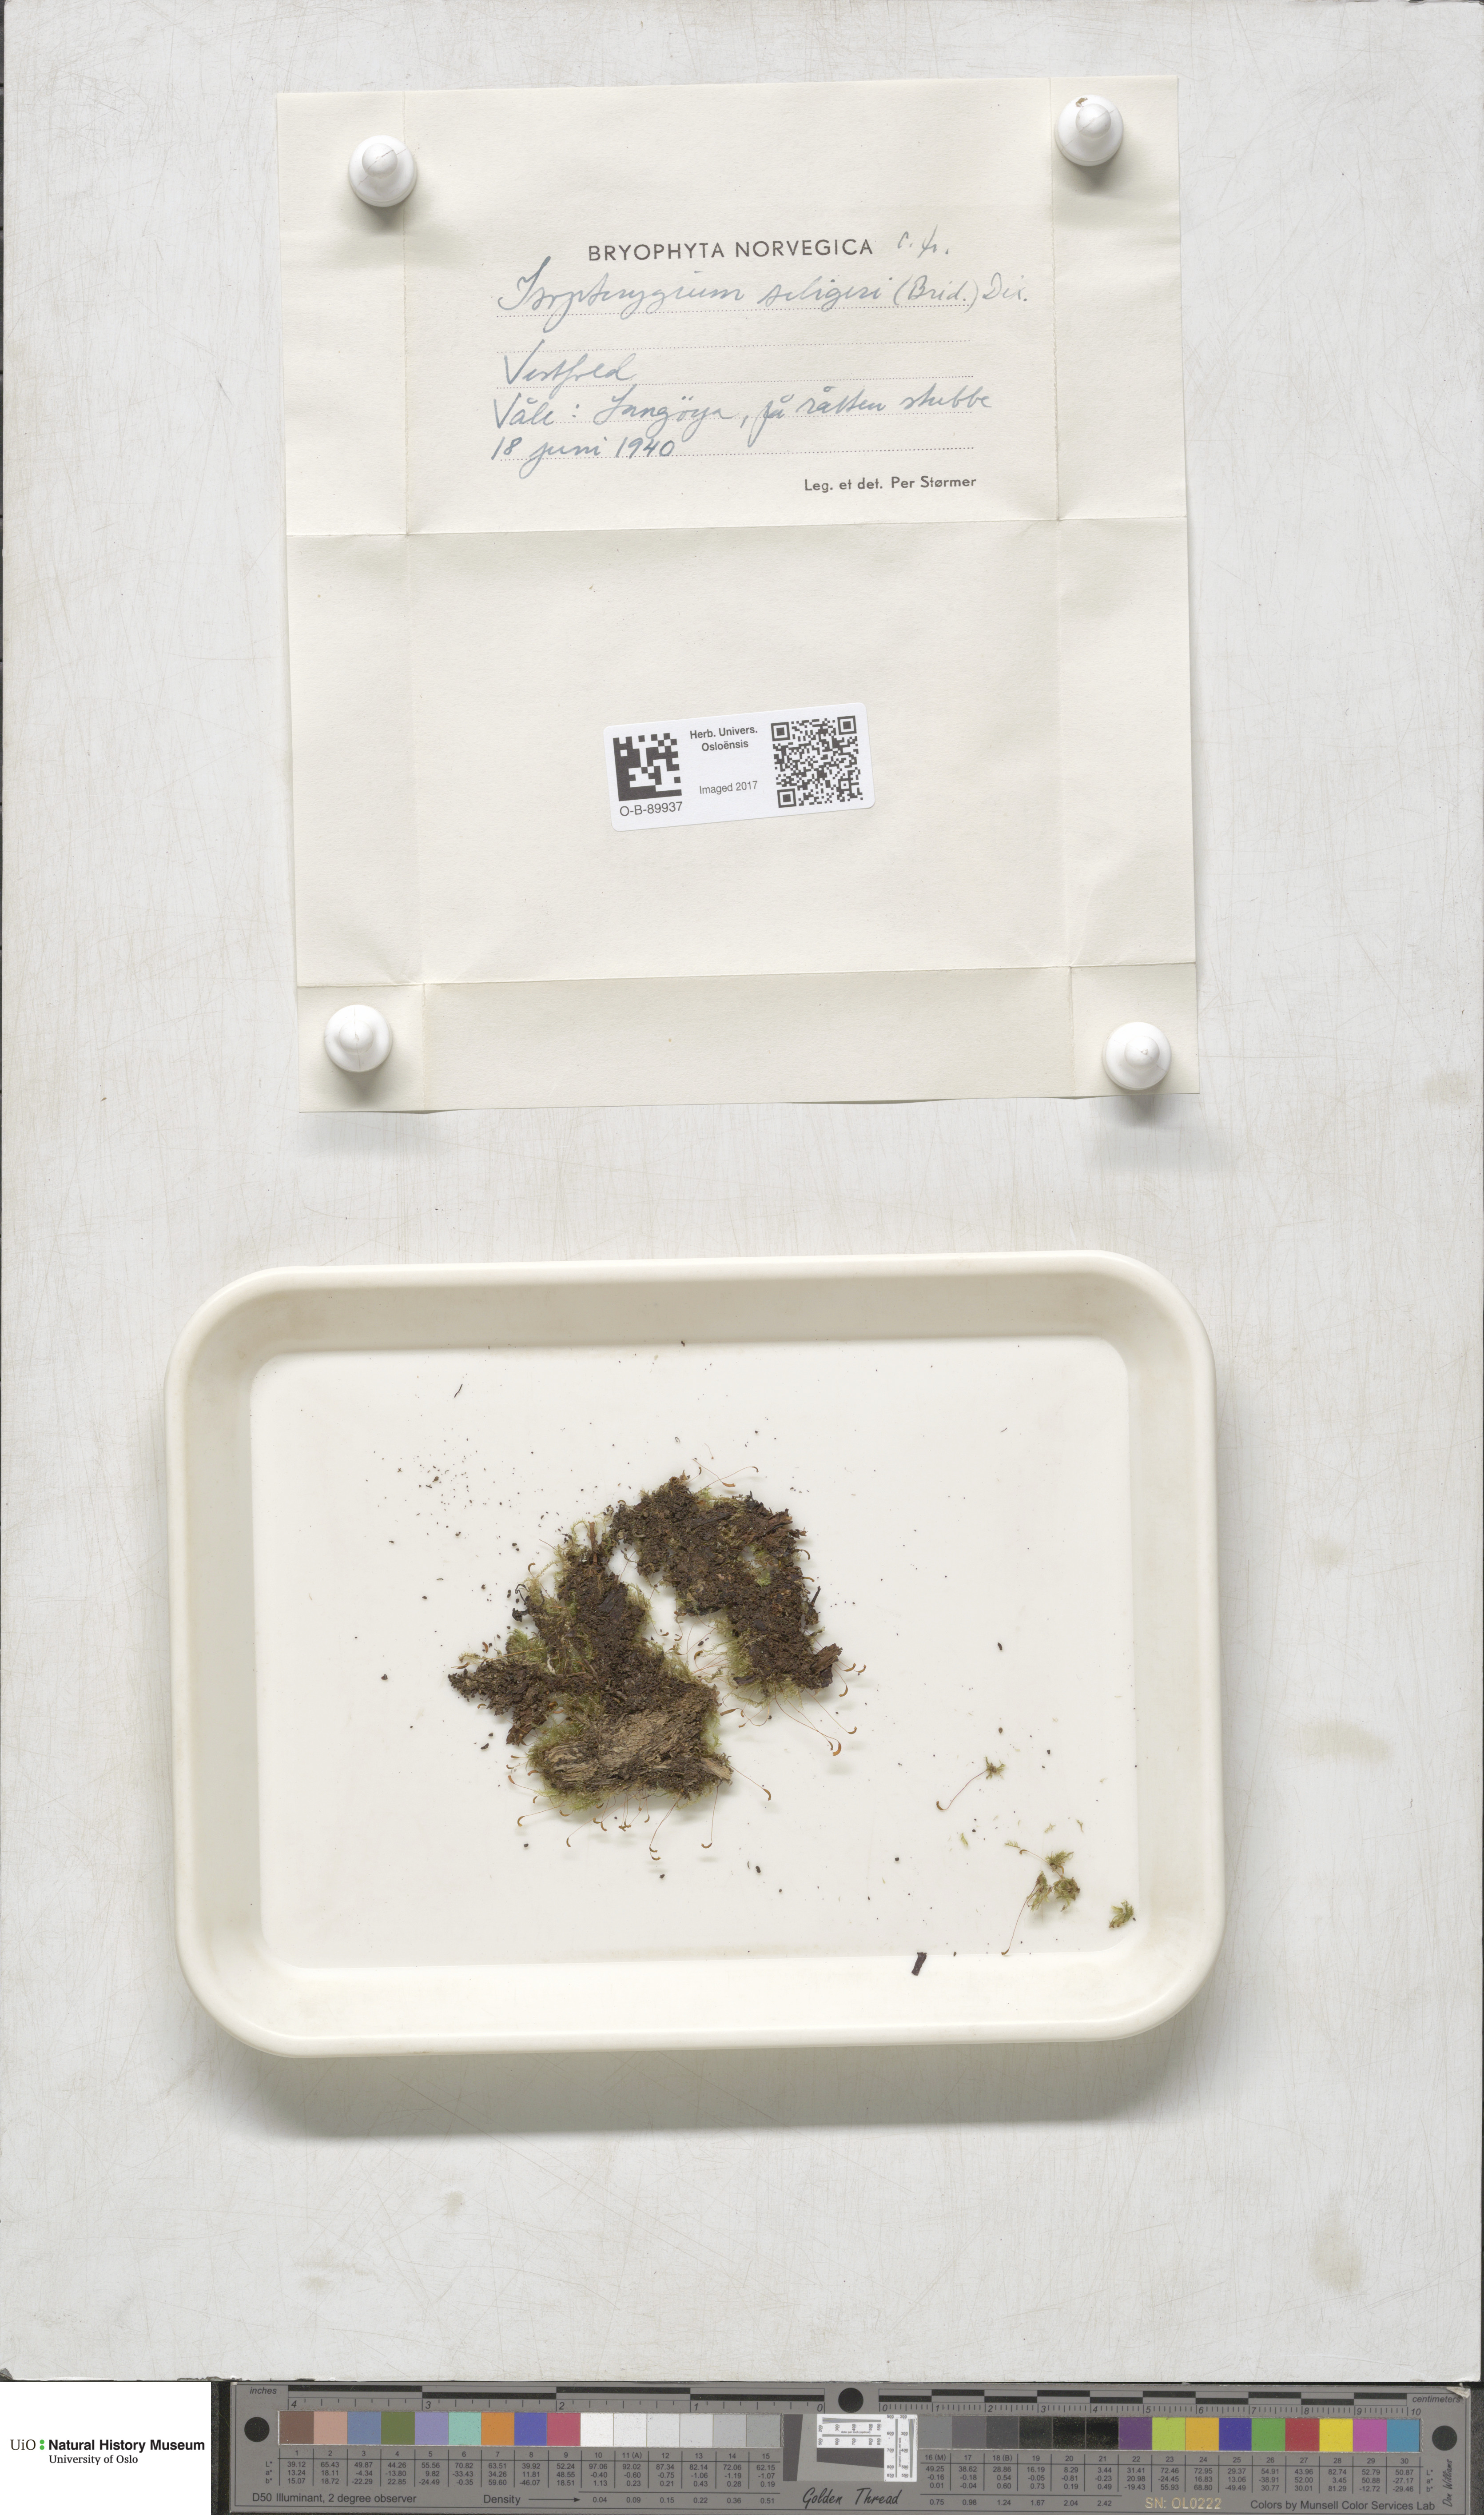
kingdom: Plantae
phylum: Bryophyta
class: Bryopsida
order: Hypnales
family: Plagiotheciaceae
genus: Herzogiella
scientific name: Herzogiella seligeri
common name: Silesian feather-moss
